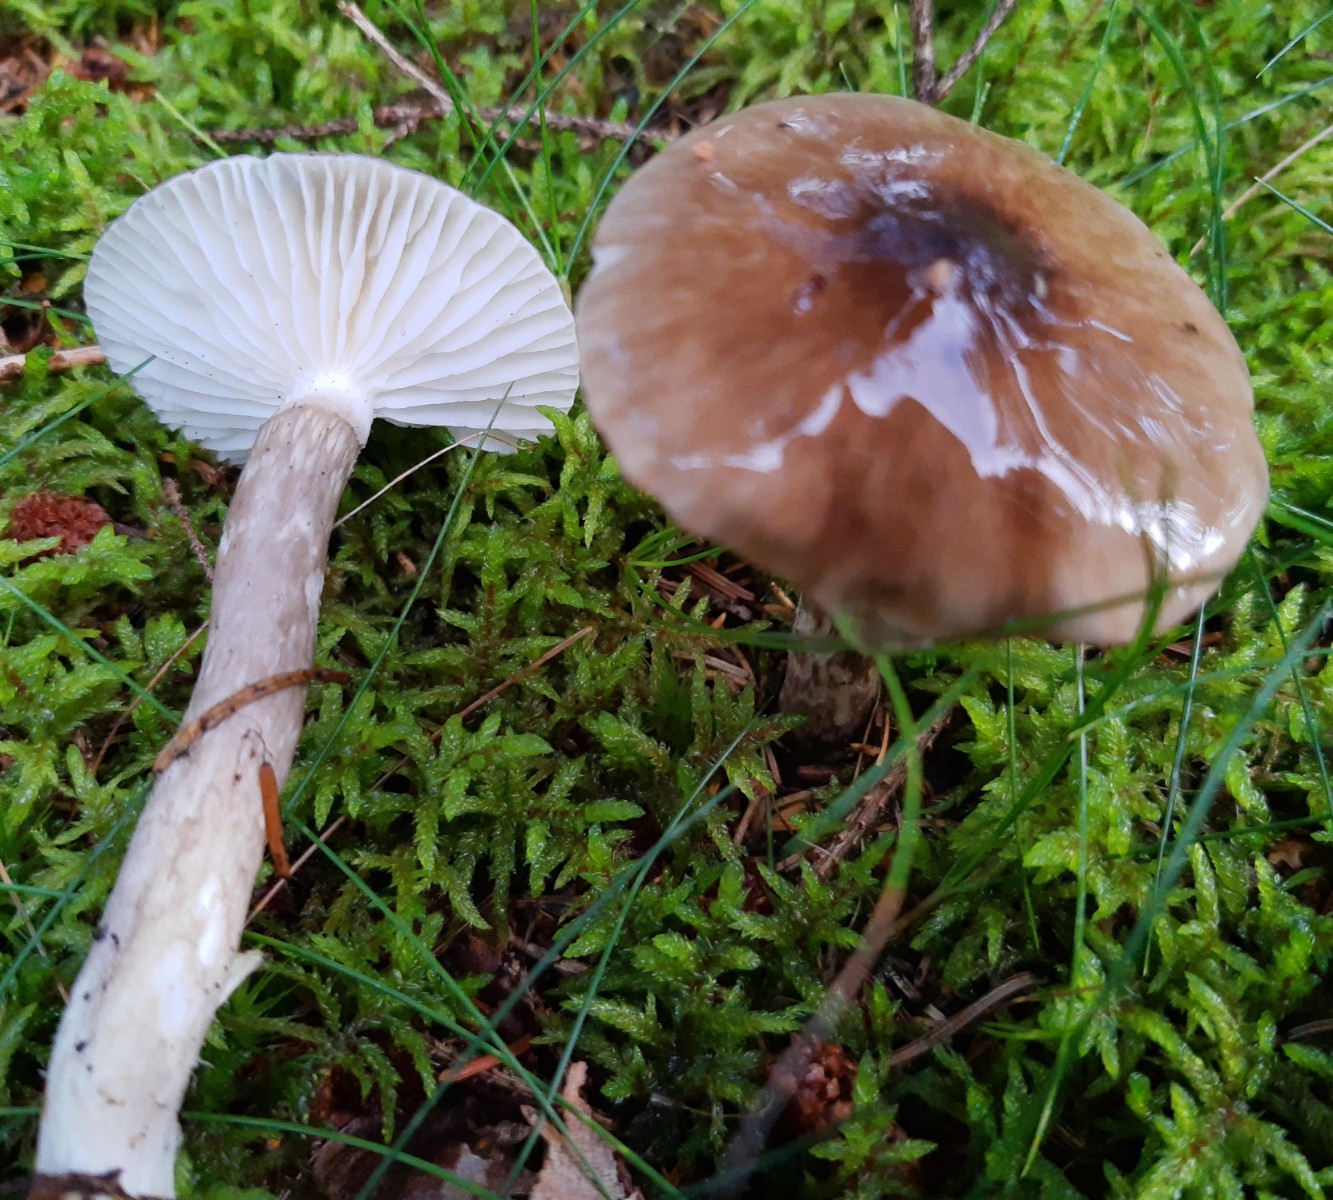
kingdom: Fungi
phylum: Basidiomycota
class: Agaricomycetes
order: Agaricales
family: Hygrophoraceae
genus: Hygrophorus
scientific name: Hygrophorus olivaceoalbus
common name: hvidbrun sneglehat
